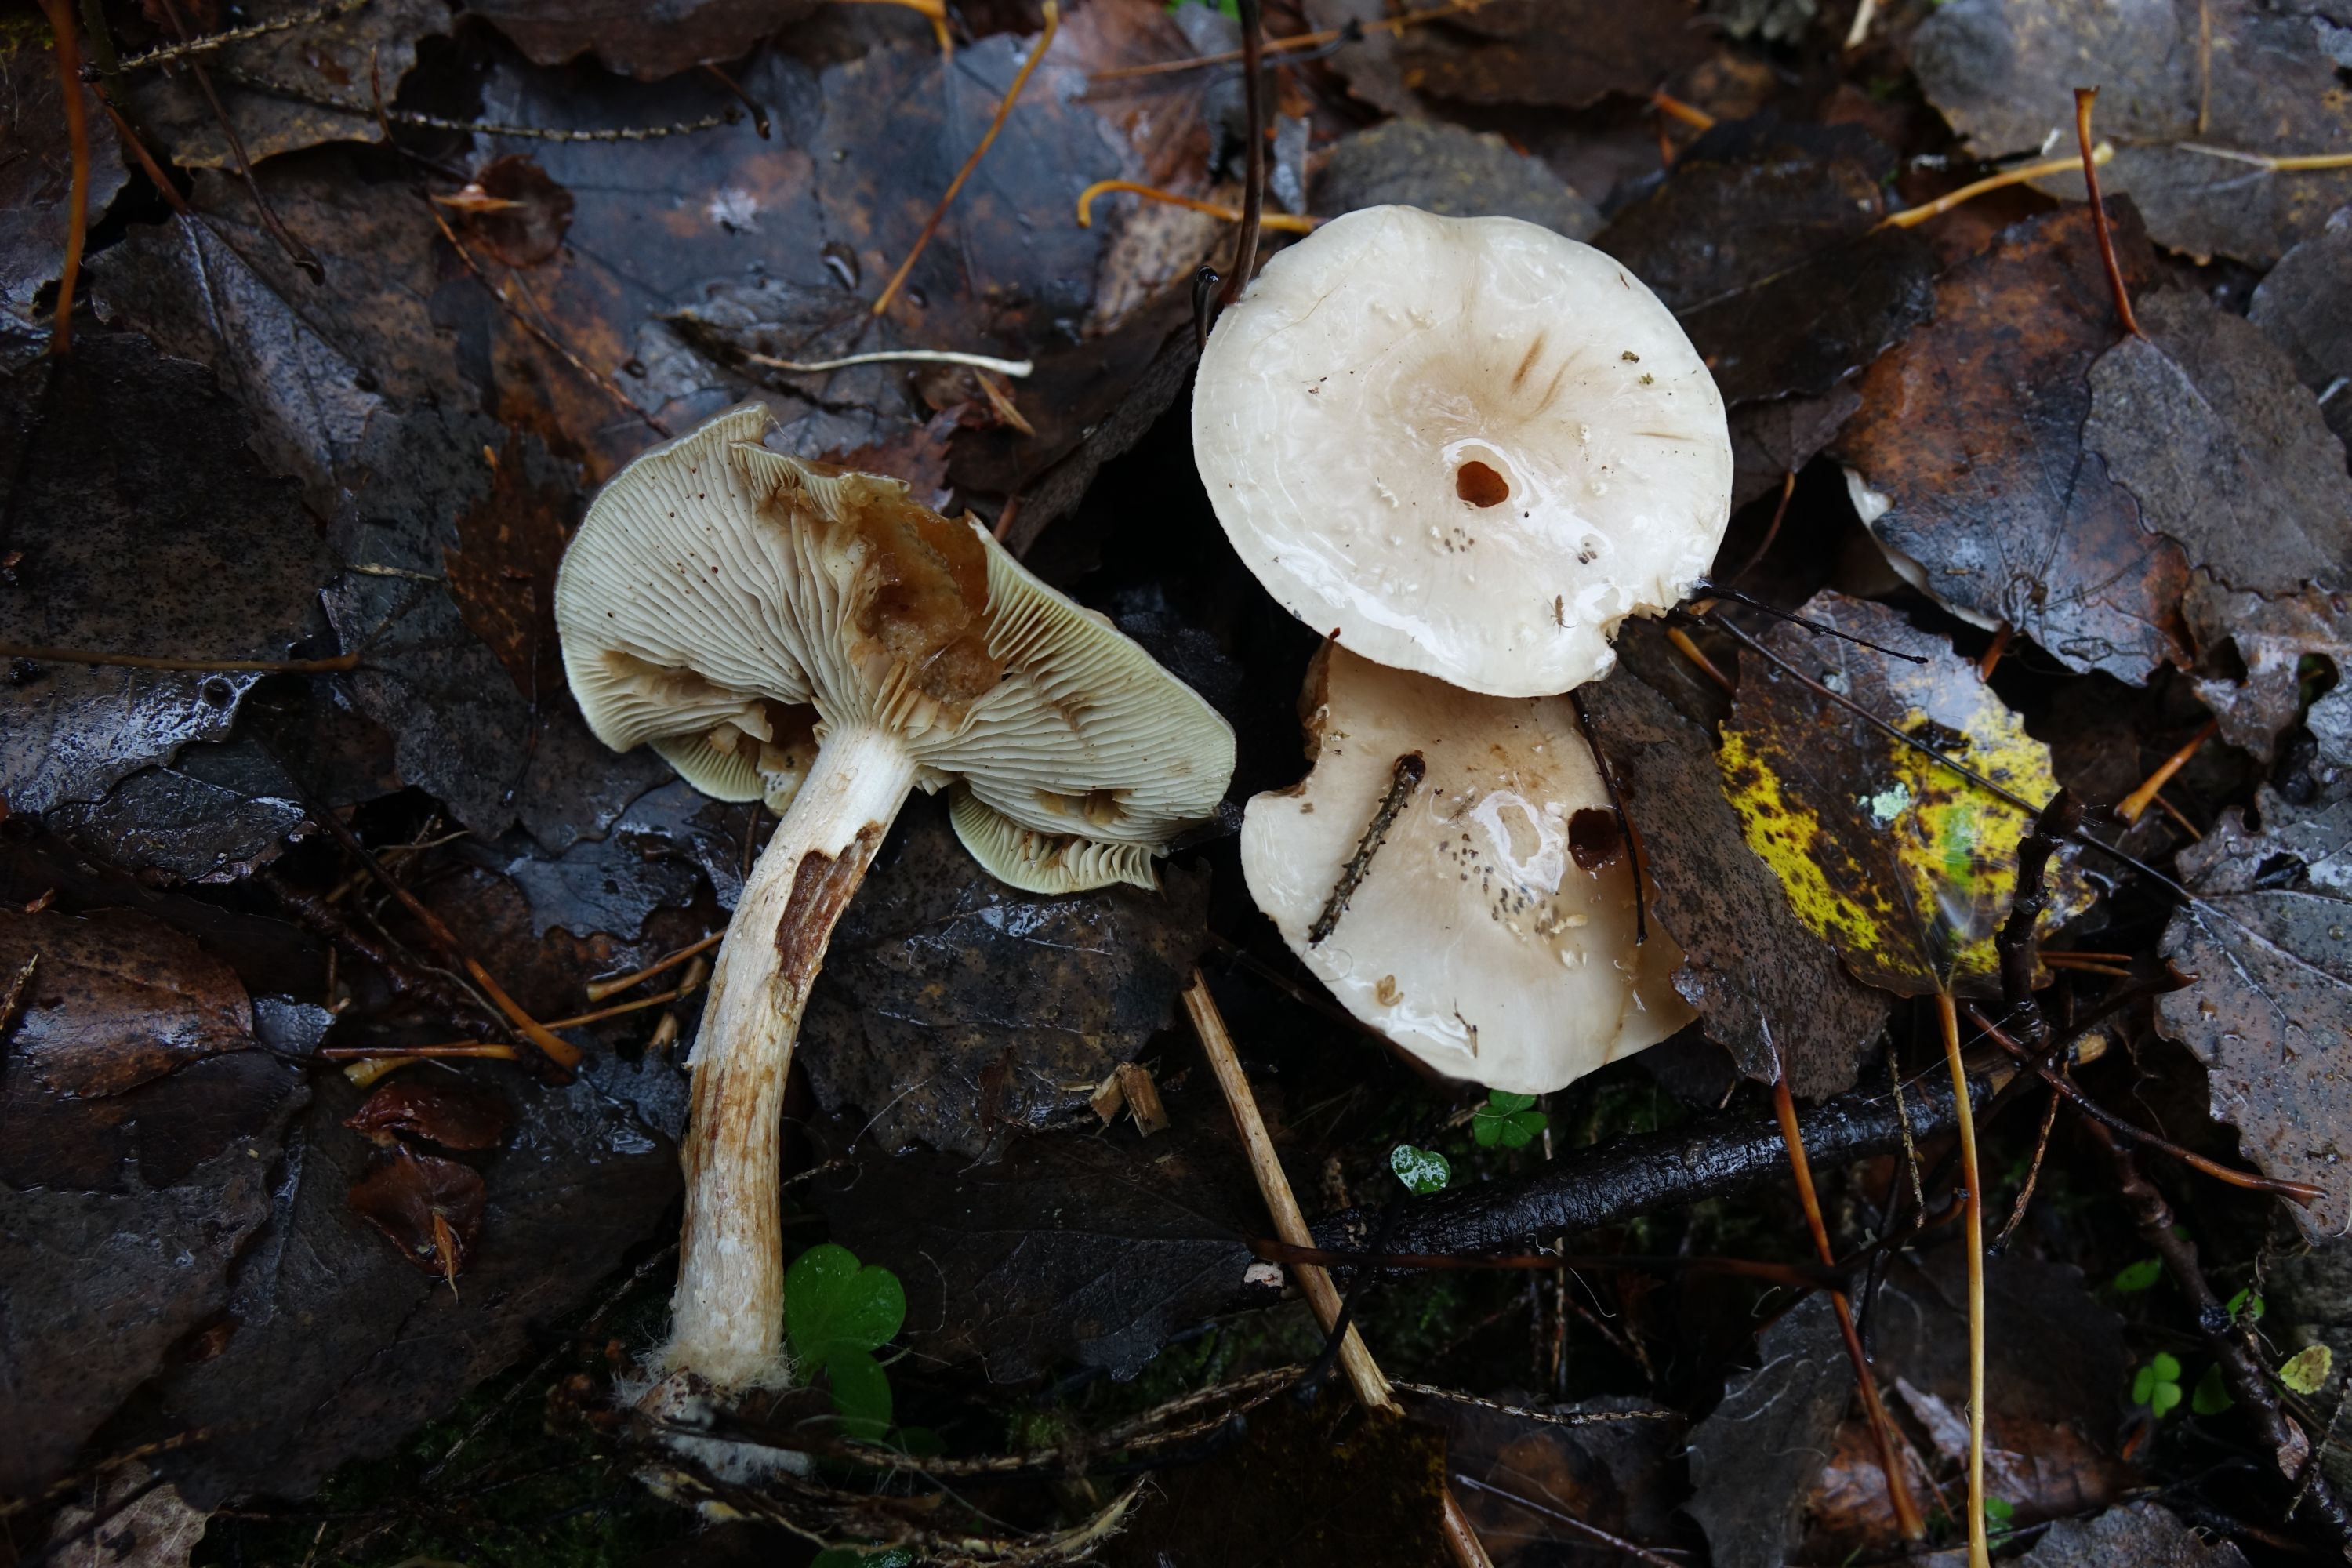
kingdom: Fungi
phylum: Basidiomycota
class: Agaricomycetes
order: Agaricales
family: Strophariaceae
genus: Pholiota
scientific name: Pholiota lenta
